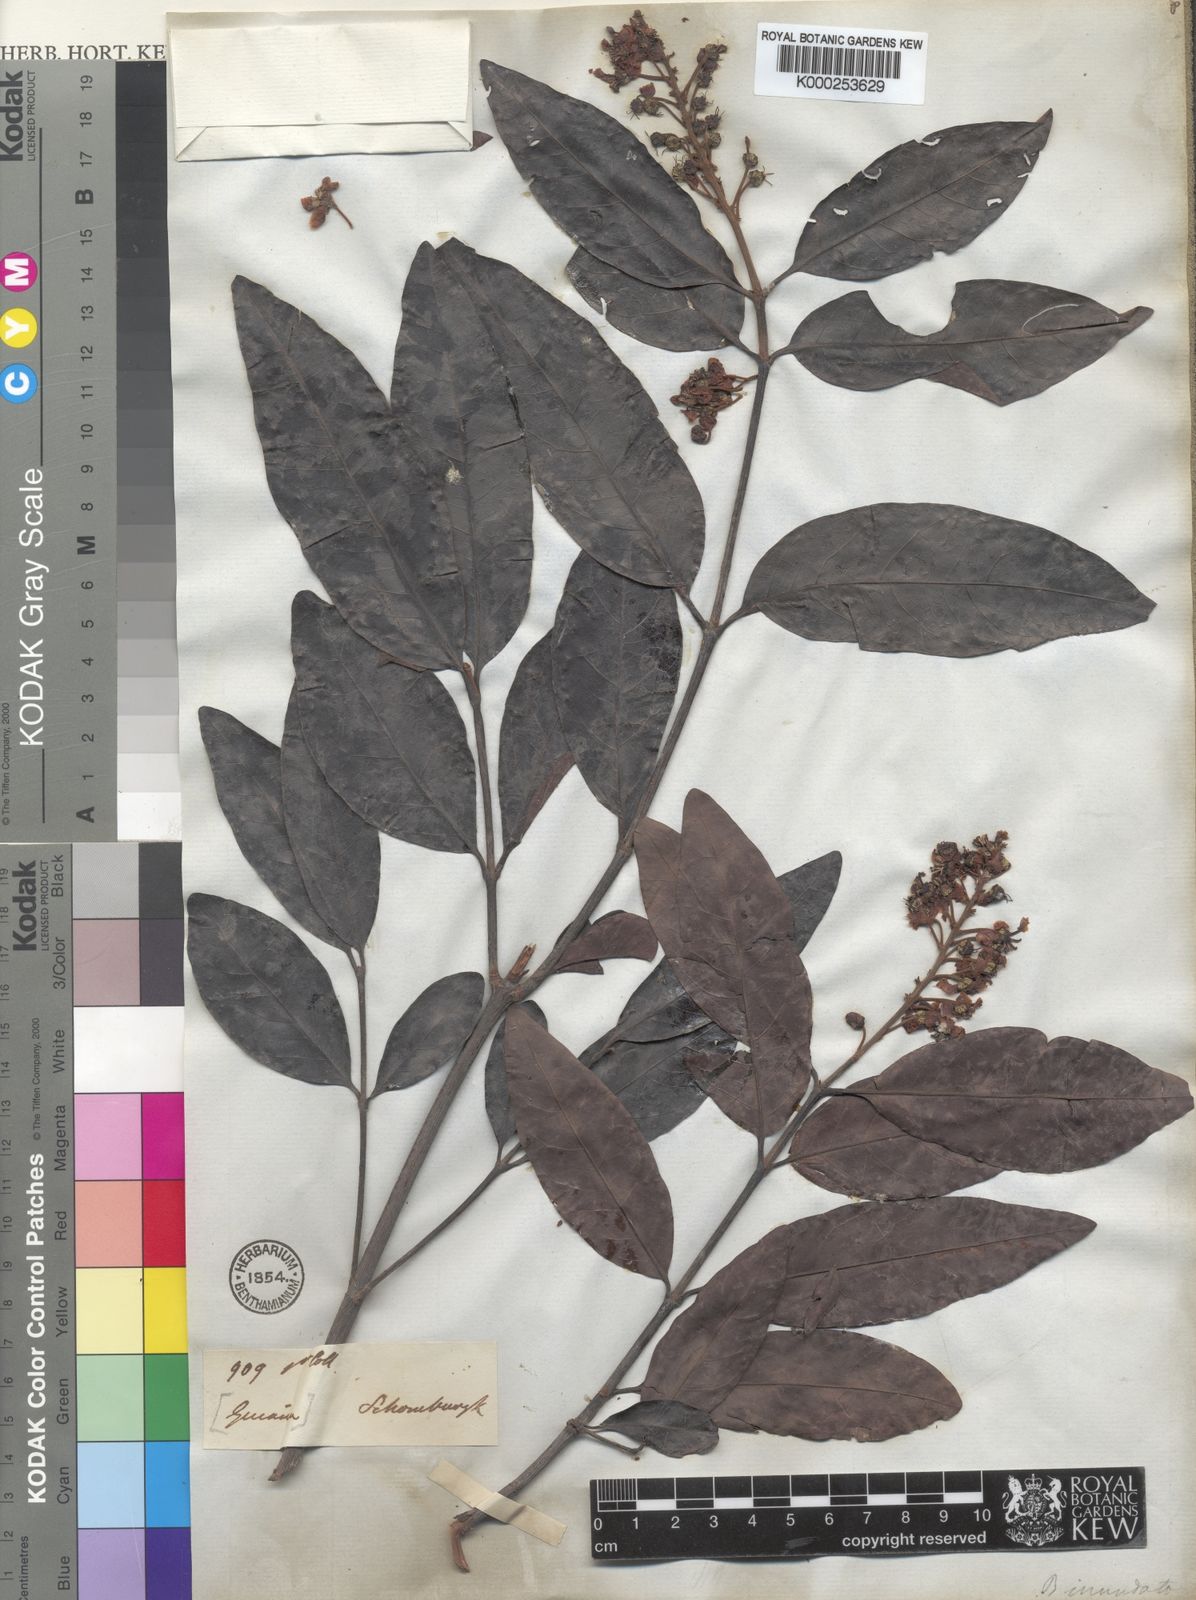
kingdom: Plantae
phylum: Tracheophyta
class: Magnoliopsida
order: Malpighiales
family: Malpighiaceae
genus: Byrsonima
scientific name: Byrsonima japurensis
